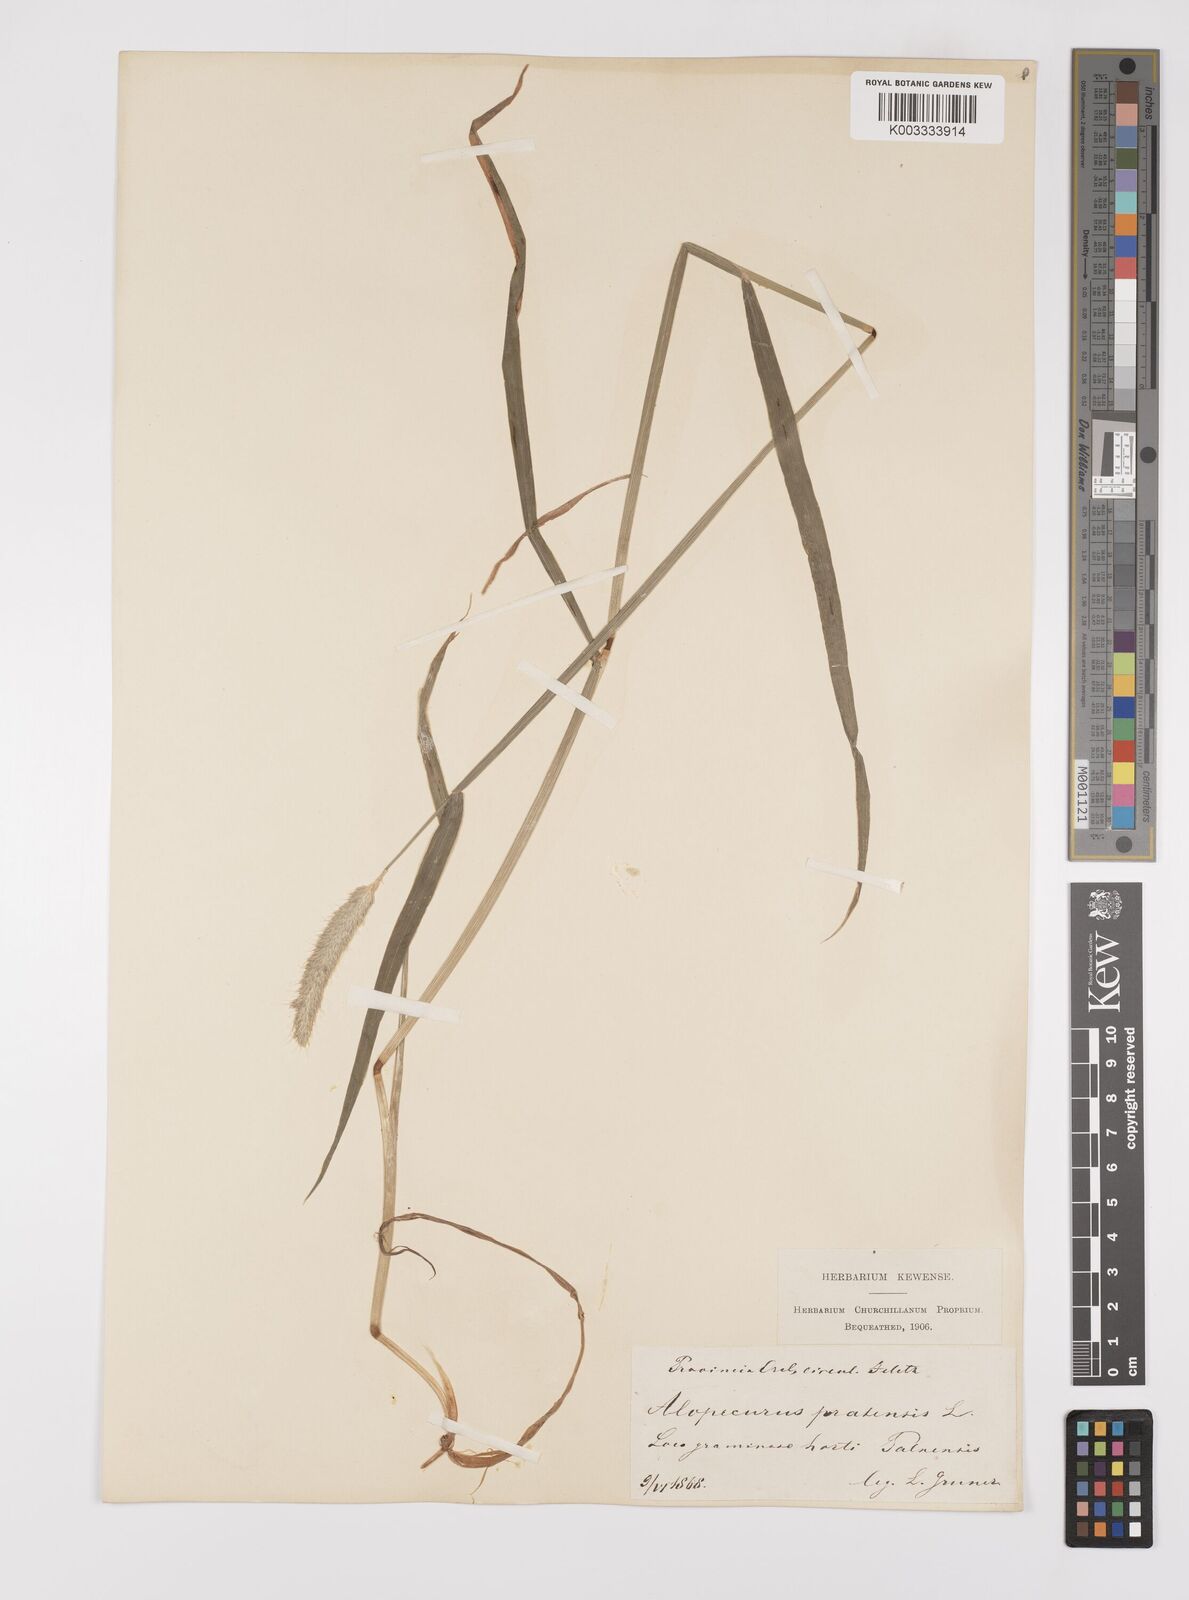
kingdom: Plantae
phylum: Tracheophyta
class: Liliopsida
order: Poales
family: Poaceae
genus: Alopecurus
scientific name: Alopecurus pratensis
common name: Meadow foxtail
